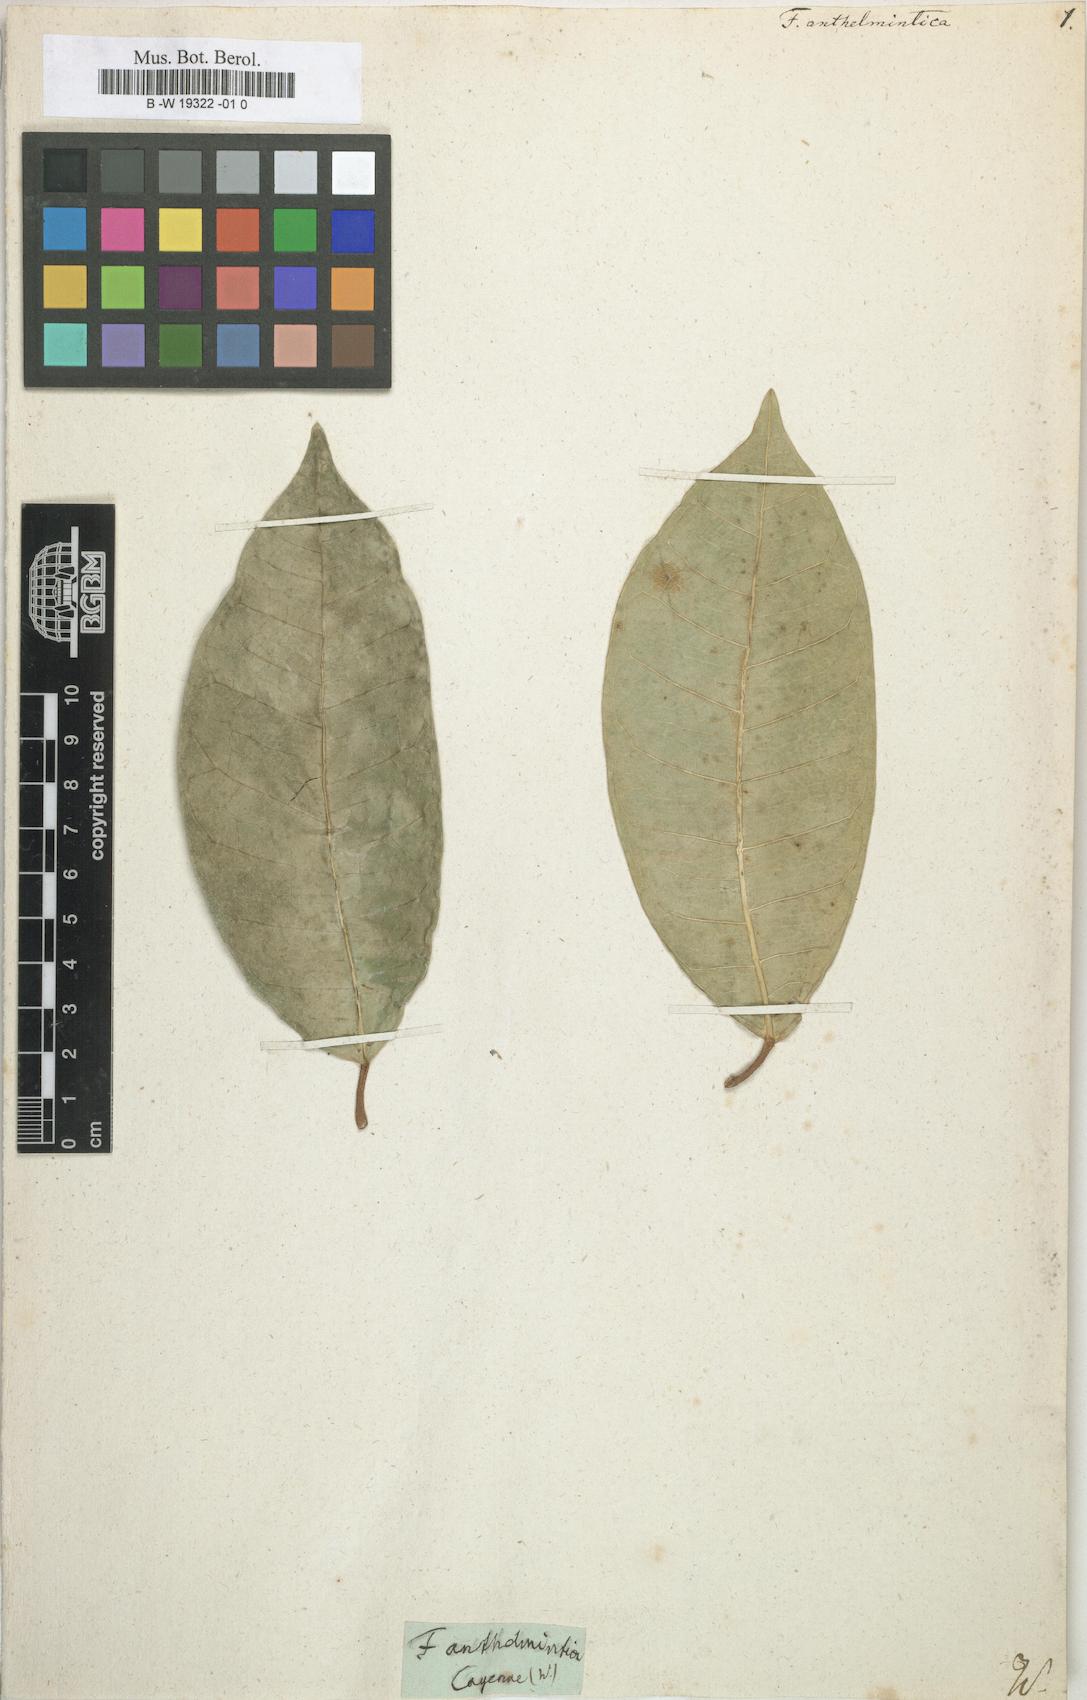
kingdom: Plantae
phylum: Tracheophyta
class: Magnoliopsida
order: Rosales
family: Moraceae
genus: Ficus
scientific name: Ficus anthelminthica
